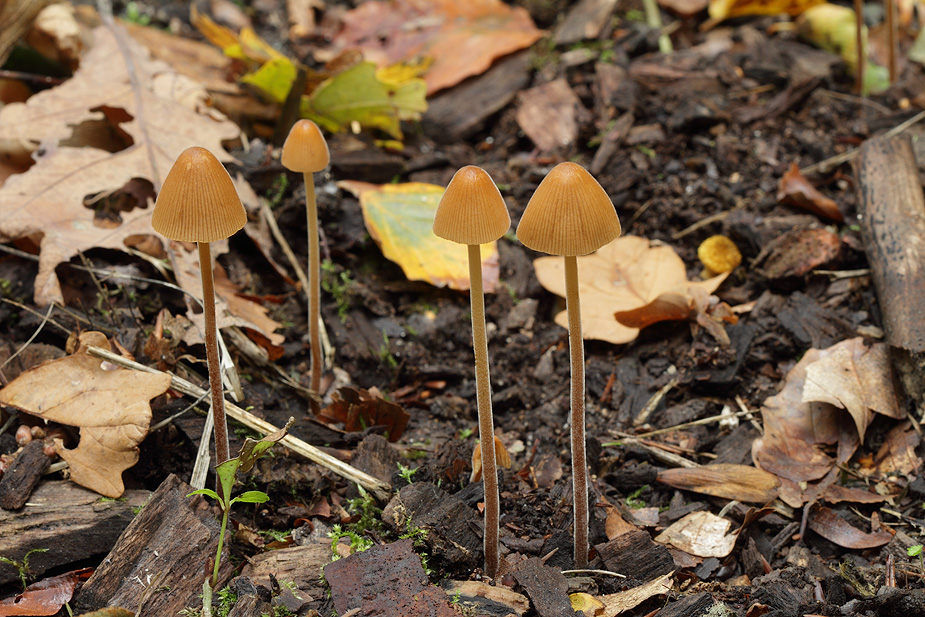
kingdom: Fungi
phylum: Basidiomycota
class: Agaricomycetes
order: Agaricales
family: Bolbitiaceae
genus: Conocybe
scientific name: Conocybe subpubescens
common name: krat-keglehat
